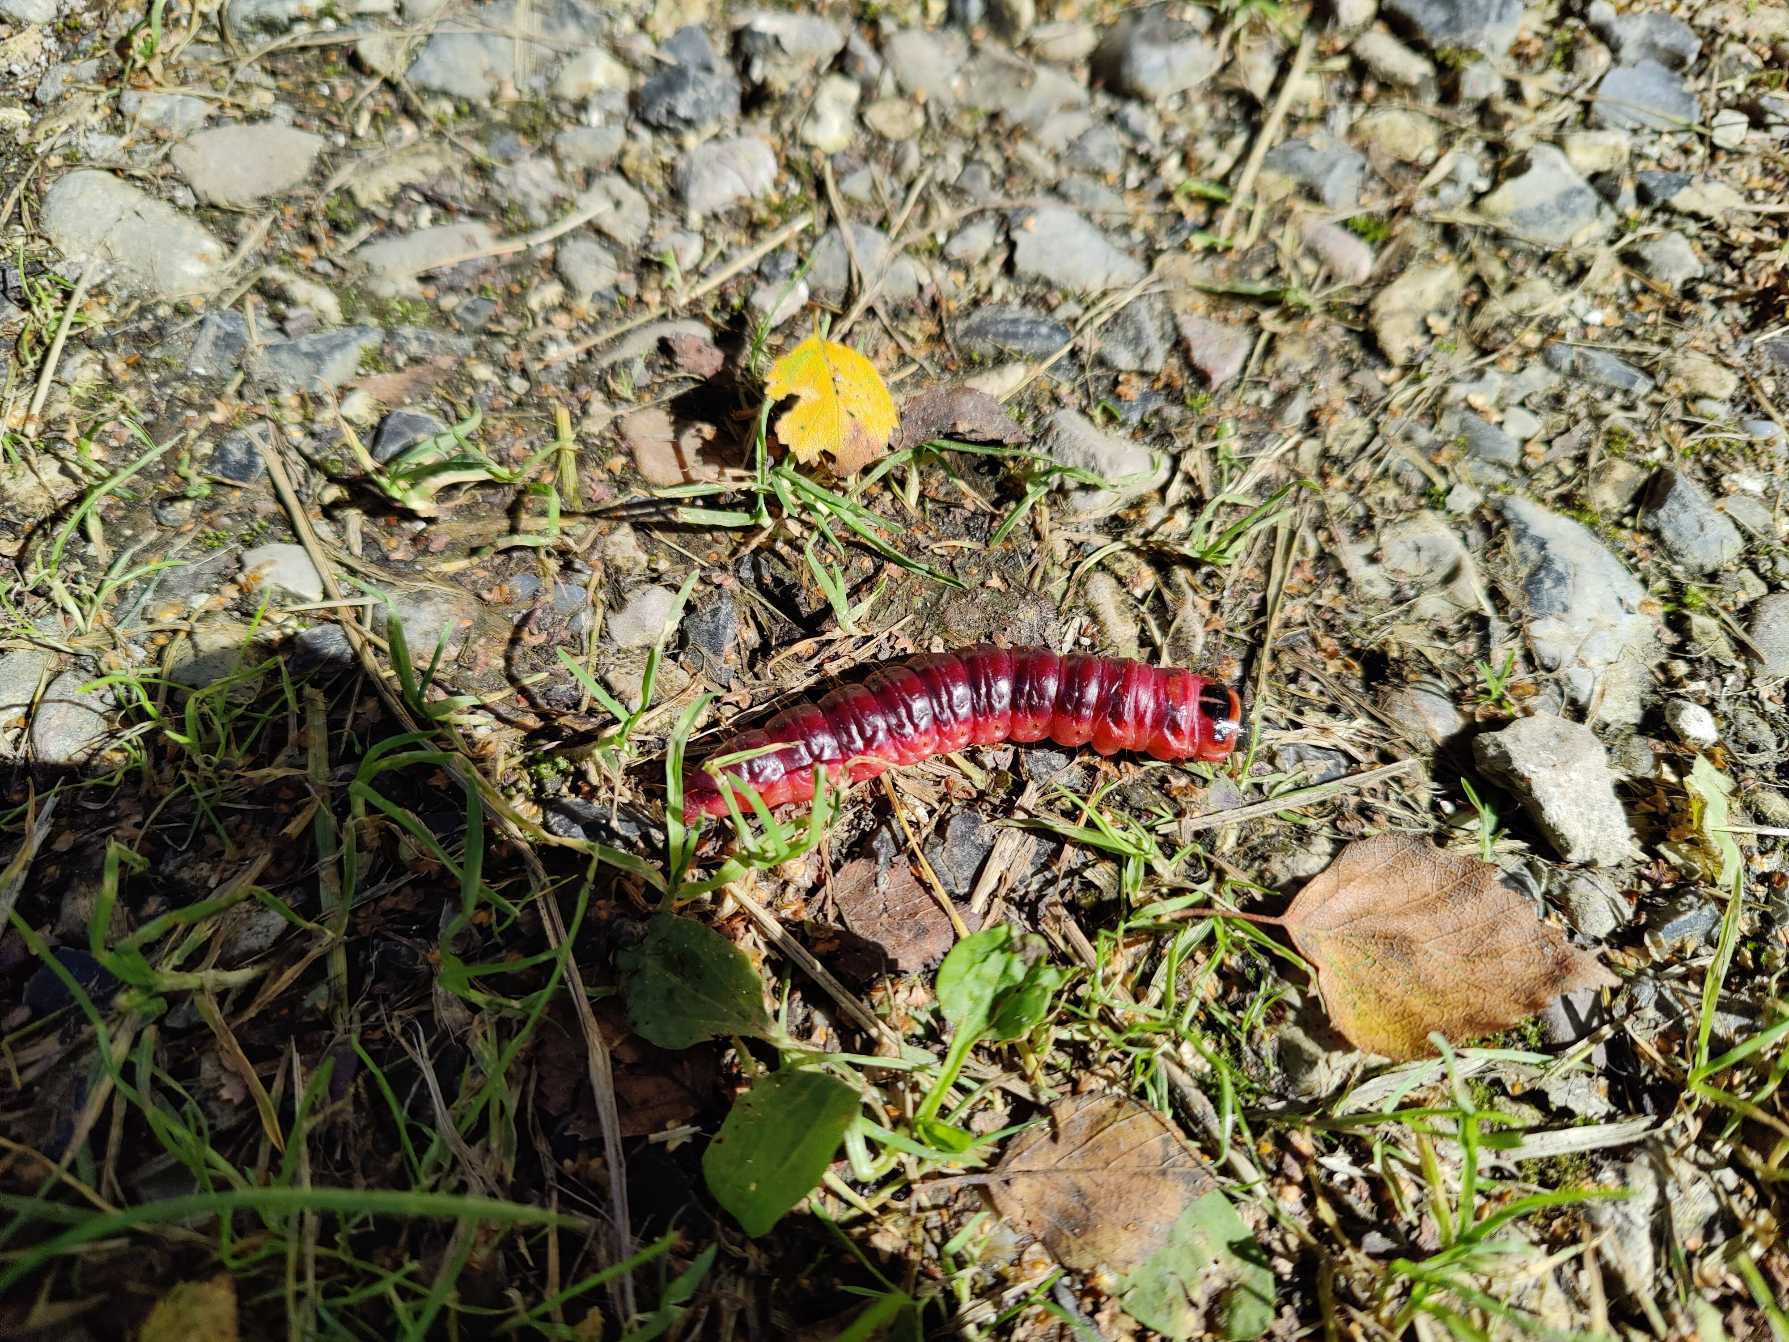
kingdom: Animalia
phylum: Arthropoda
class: Insecta
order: Lepidoptera
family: Cossidae
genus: Cossus
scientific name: Cossus cossus
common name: Pileborer
